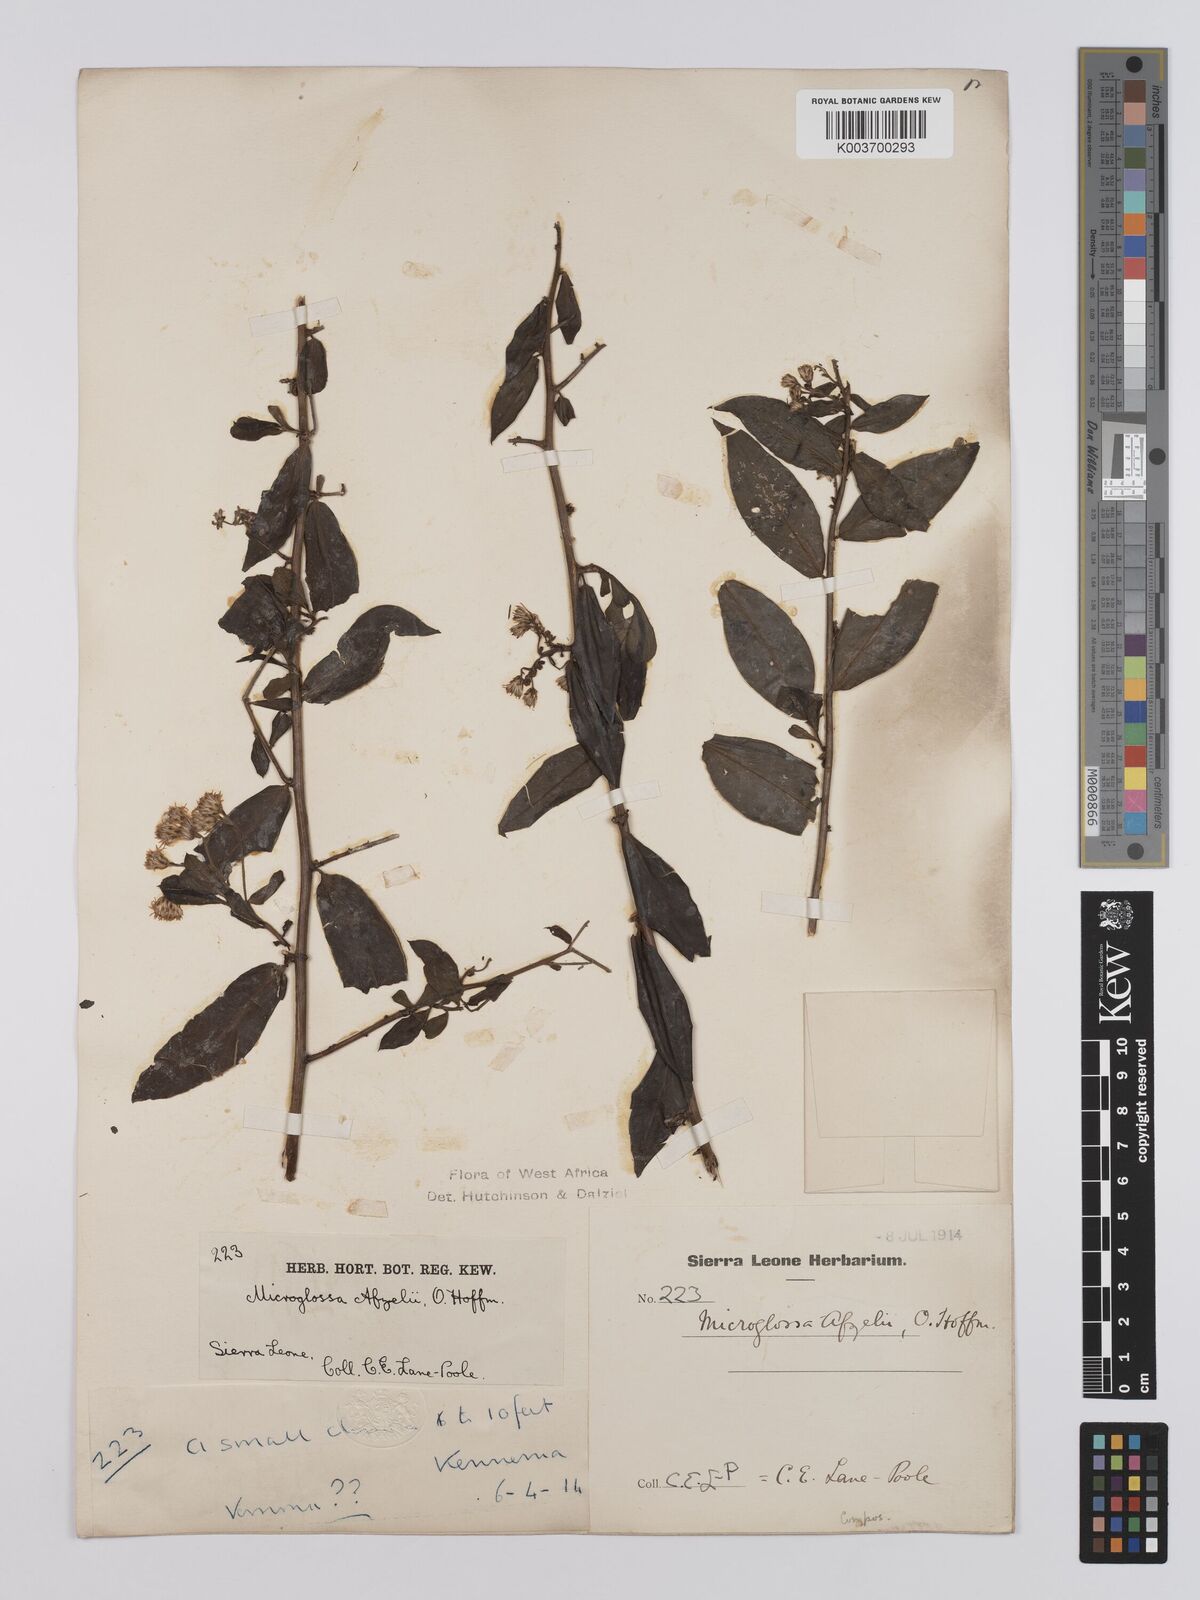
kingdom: Plantae
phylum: Tracheophyta
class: Magnoliopsida
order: Asterales
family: Asteraceae
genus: Microglossa
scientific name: Microglossa afzelii
